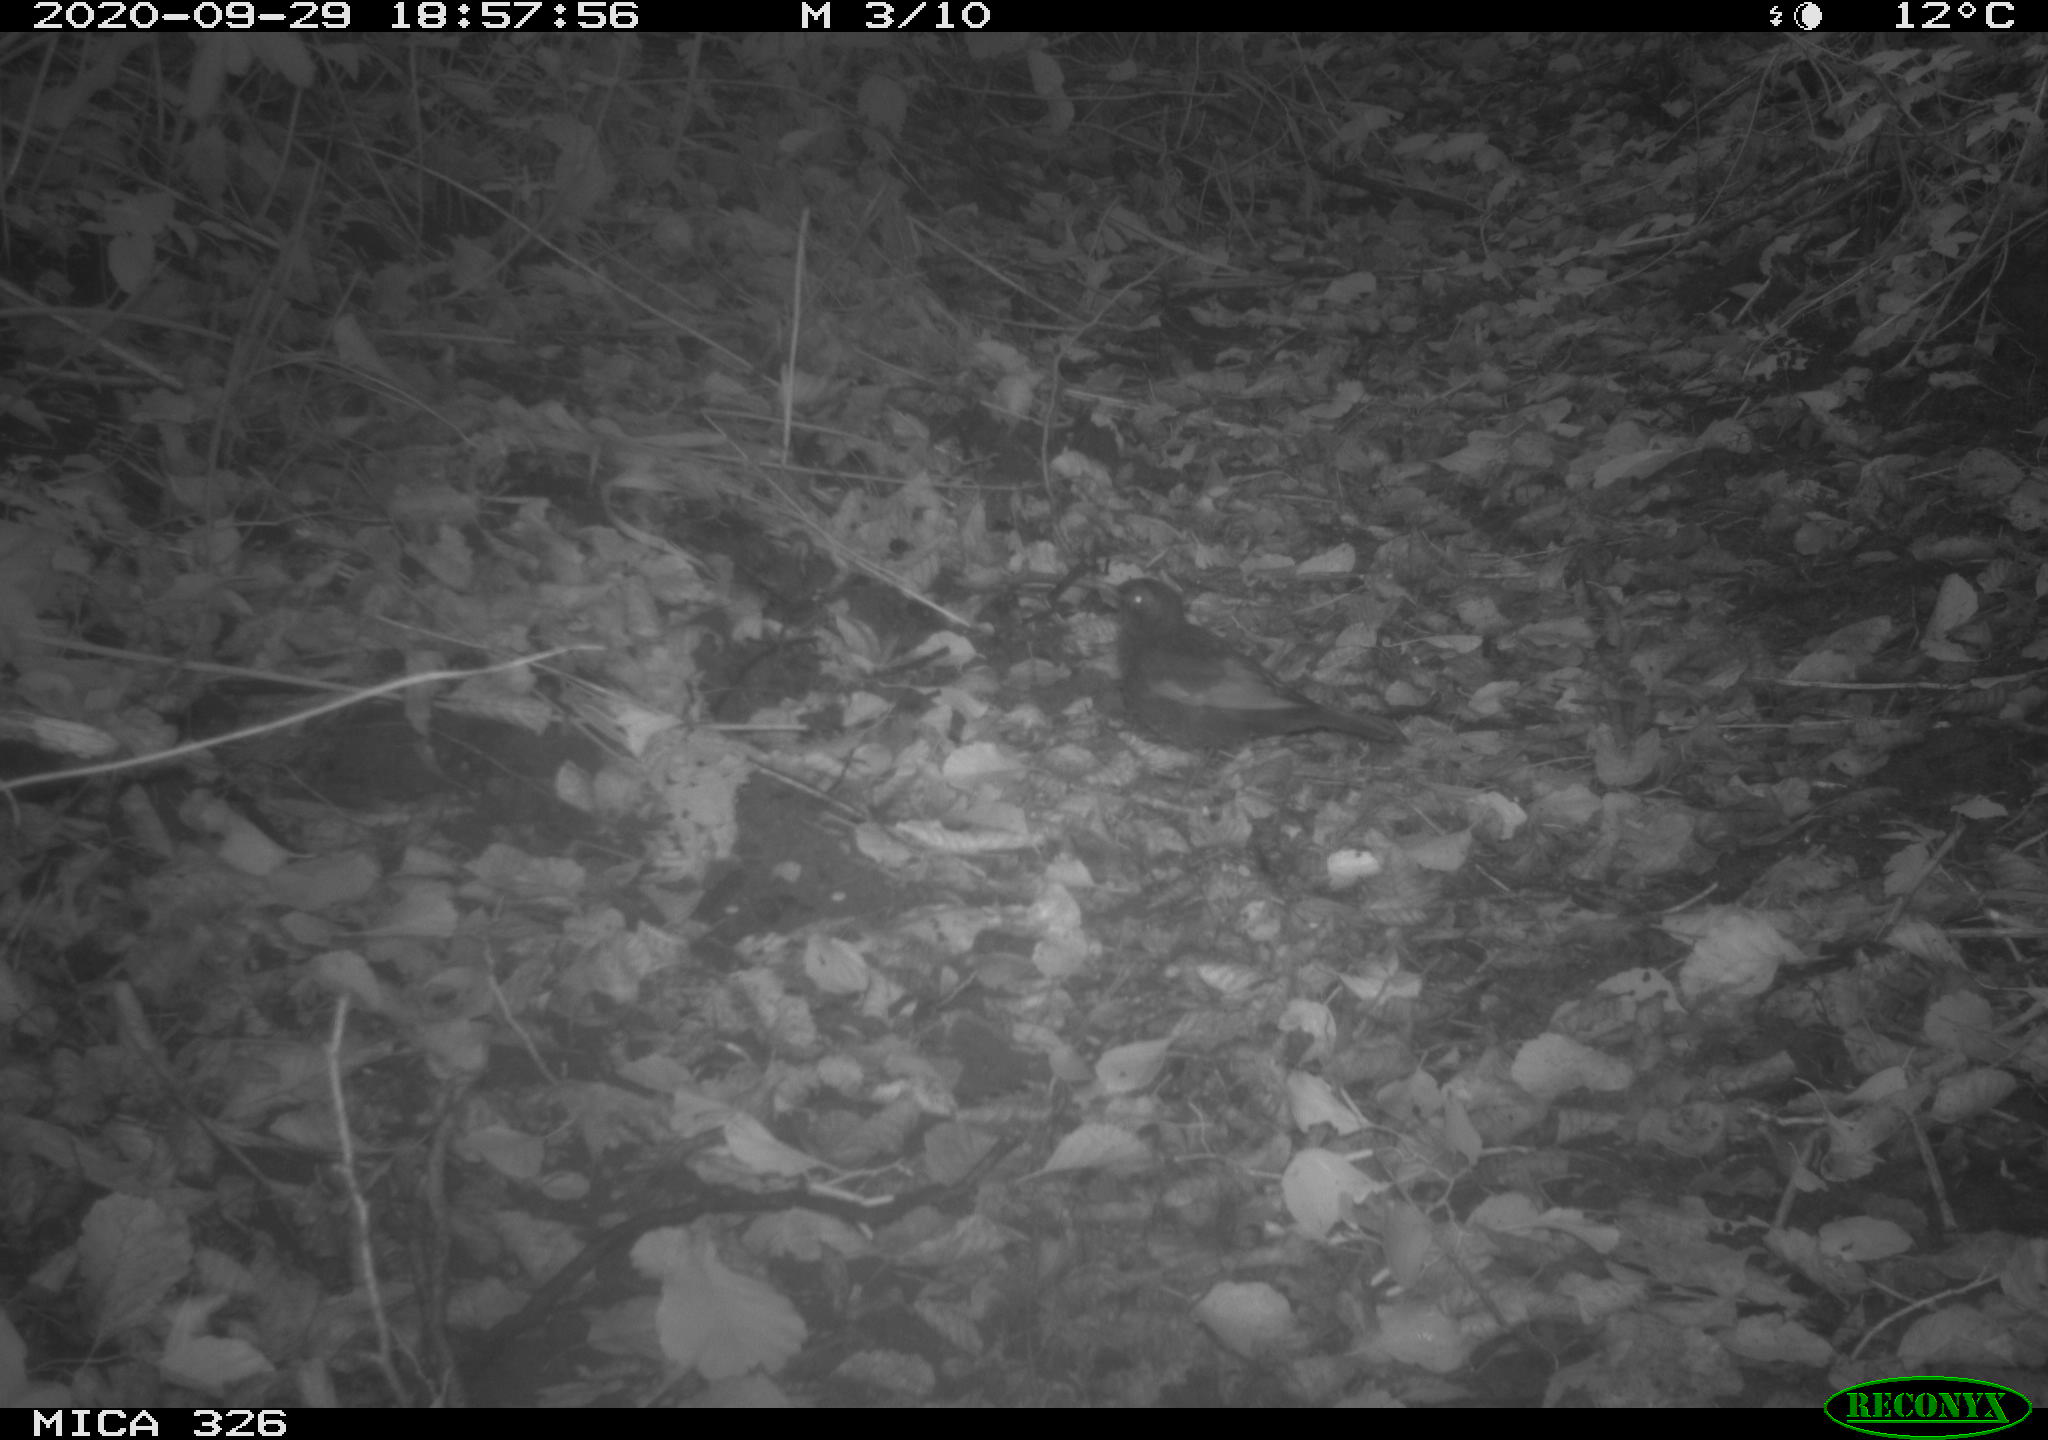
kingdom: Animalia
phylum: Chordata
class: Aves
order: Passeriformes
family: Turdidae
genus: Turdus
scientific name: Turdus merula
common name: Common blackbird
